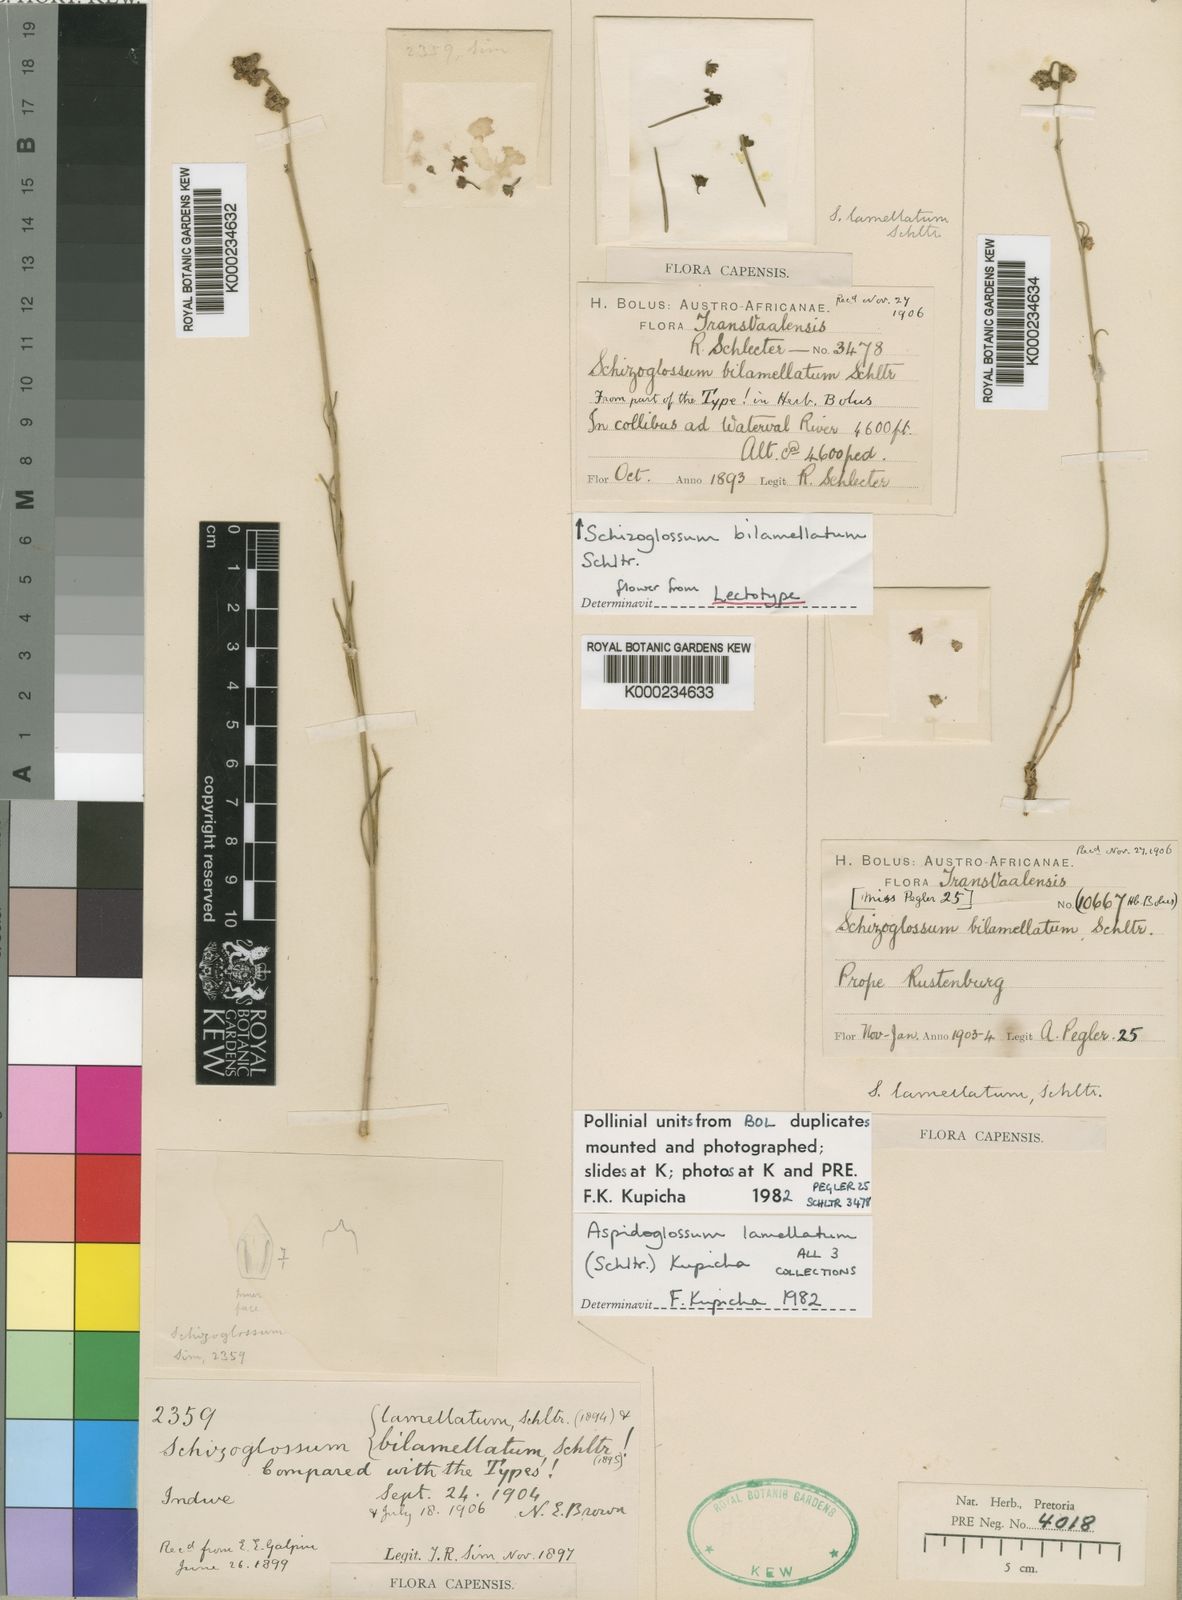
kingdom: Plantae
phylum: Tracheophyta
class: Magnoliopsida
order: Gentianales
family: Apocynaceae
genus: Aspidoglossum
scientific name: Aspidoglossum lamellatum
